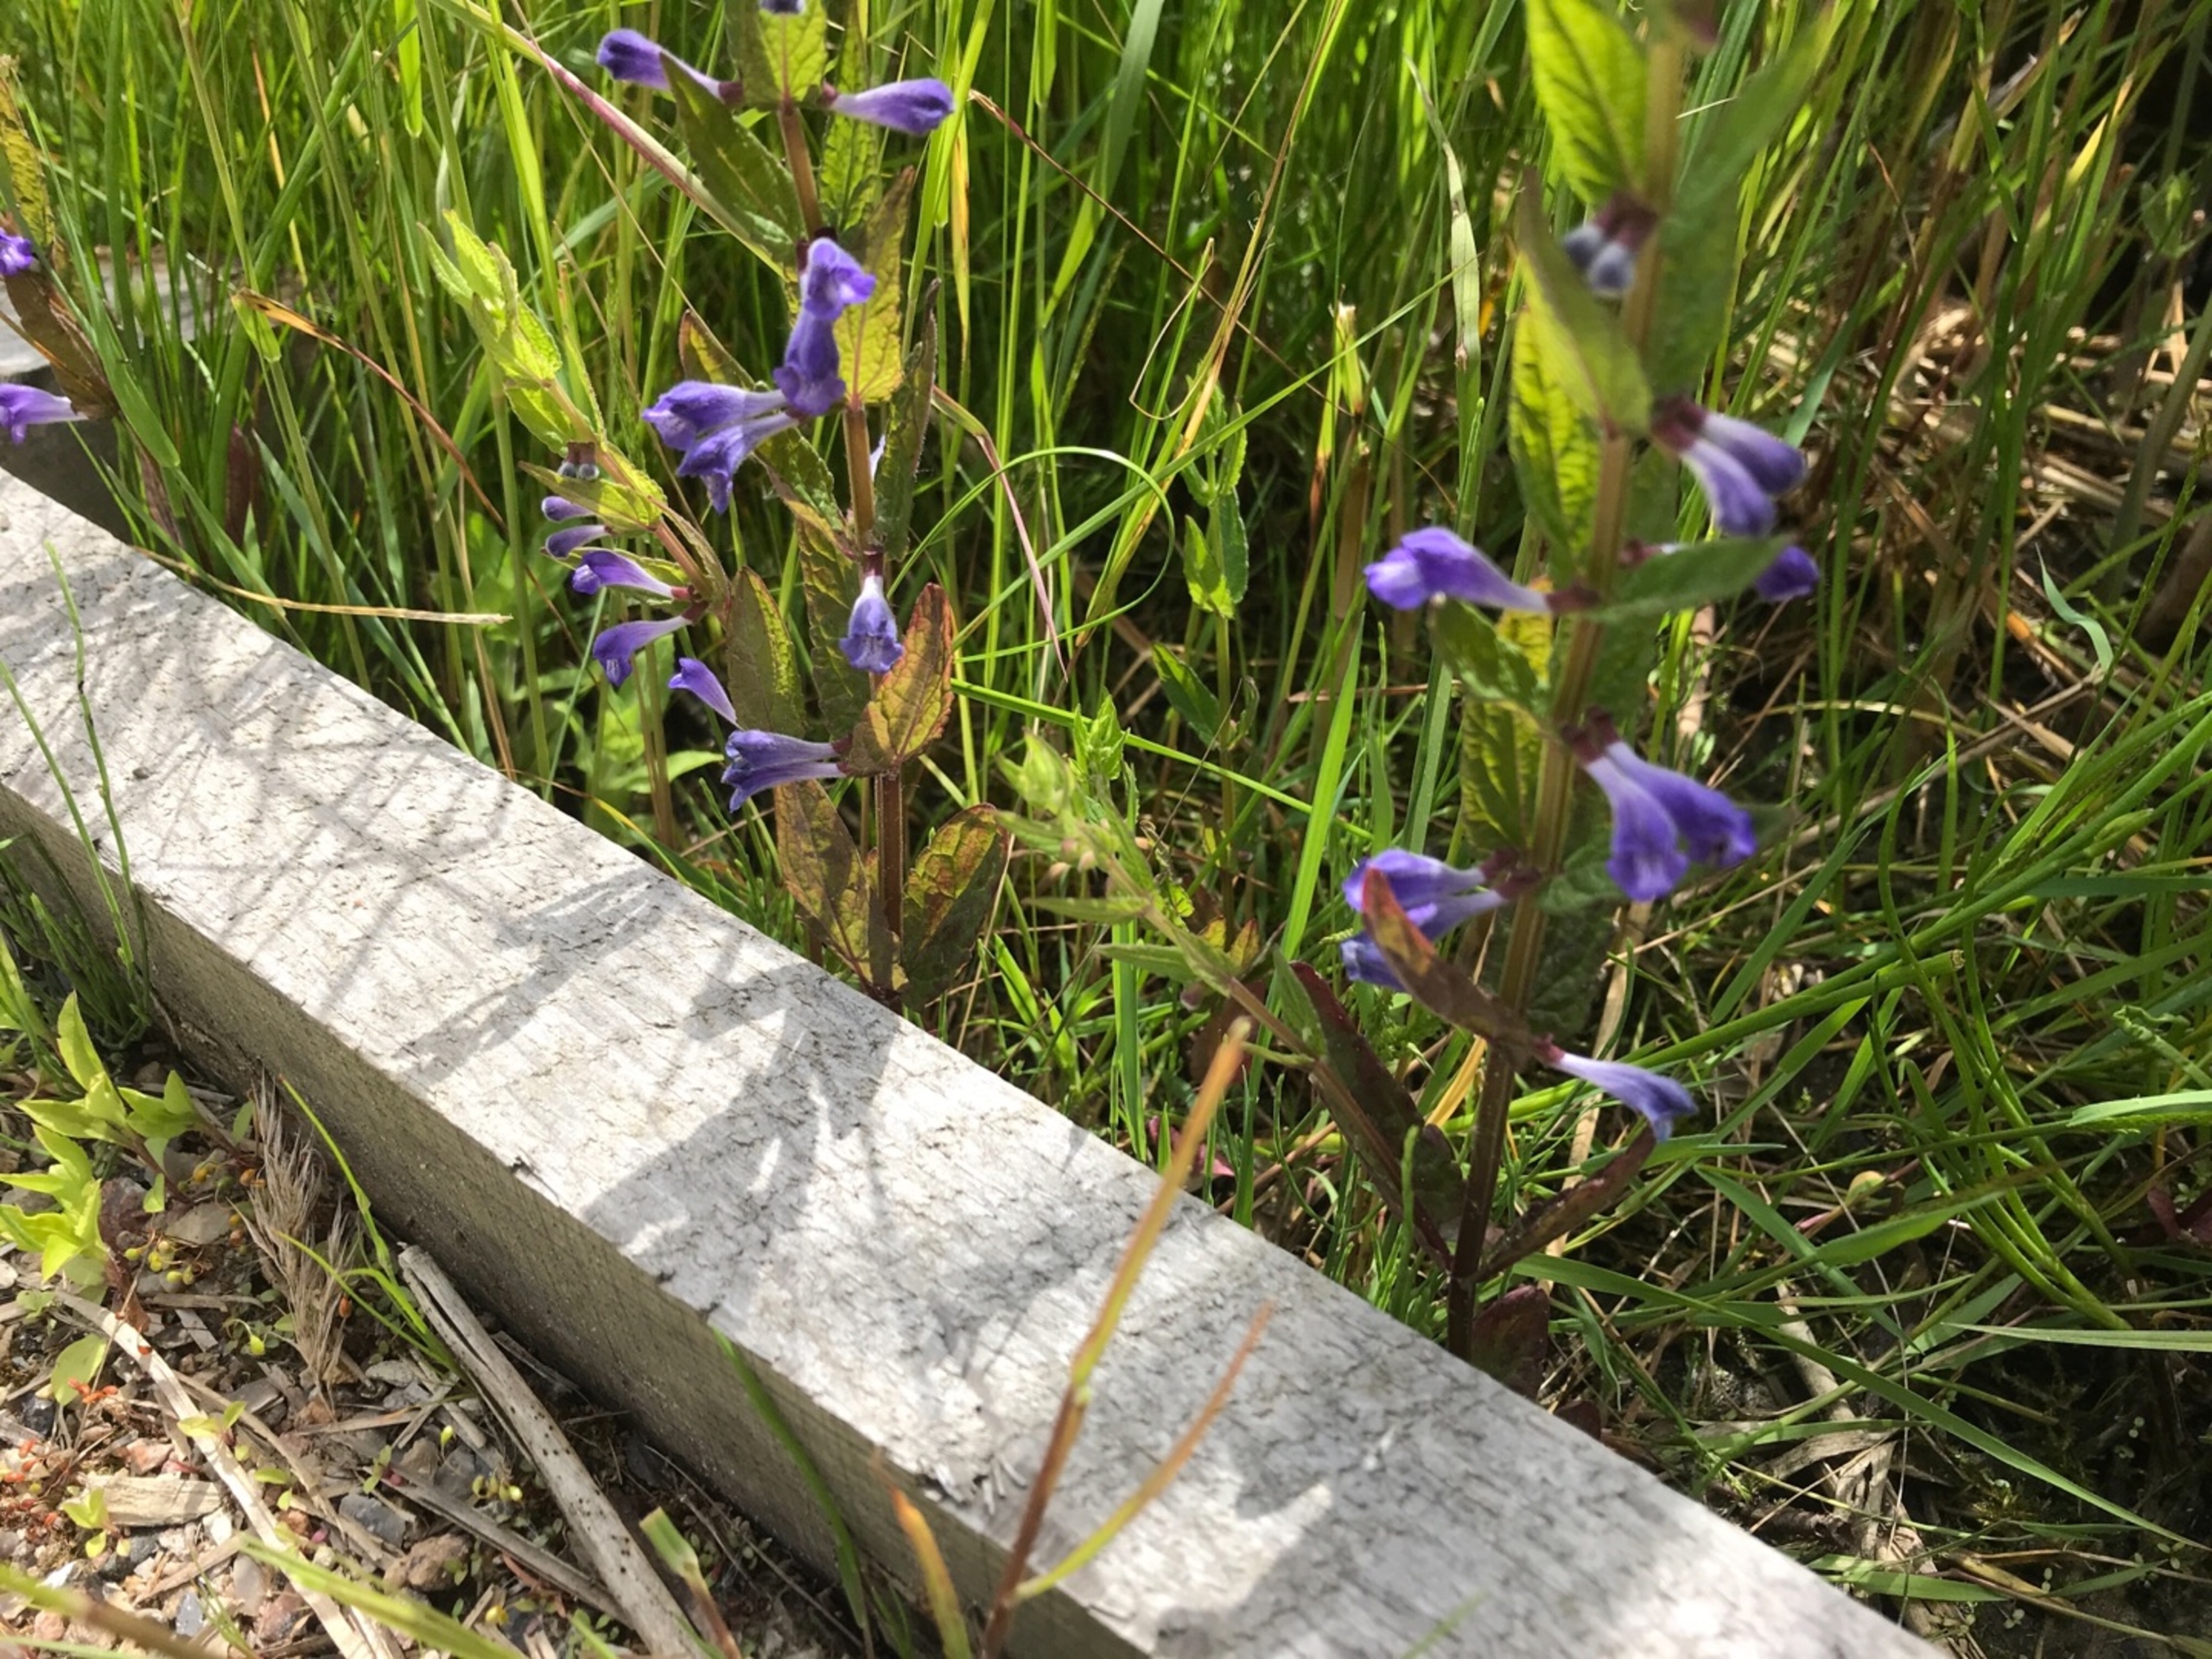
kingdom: Plantae
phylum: Tracheophyta
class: Magnoliopsida
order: Lamiales
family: Lamiaceae
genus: Scutellaria
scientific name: Scutellaria galericulata
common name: Almindelig skjolddrager
